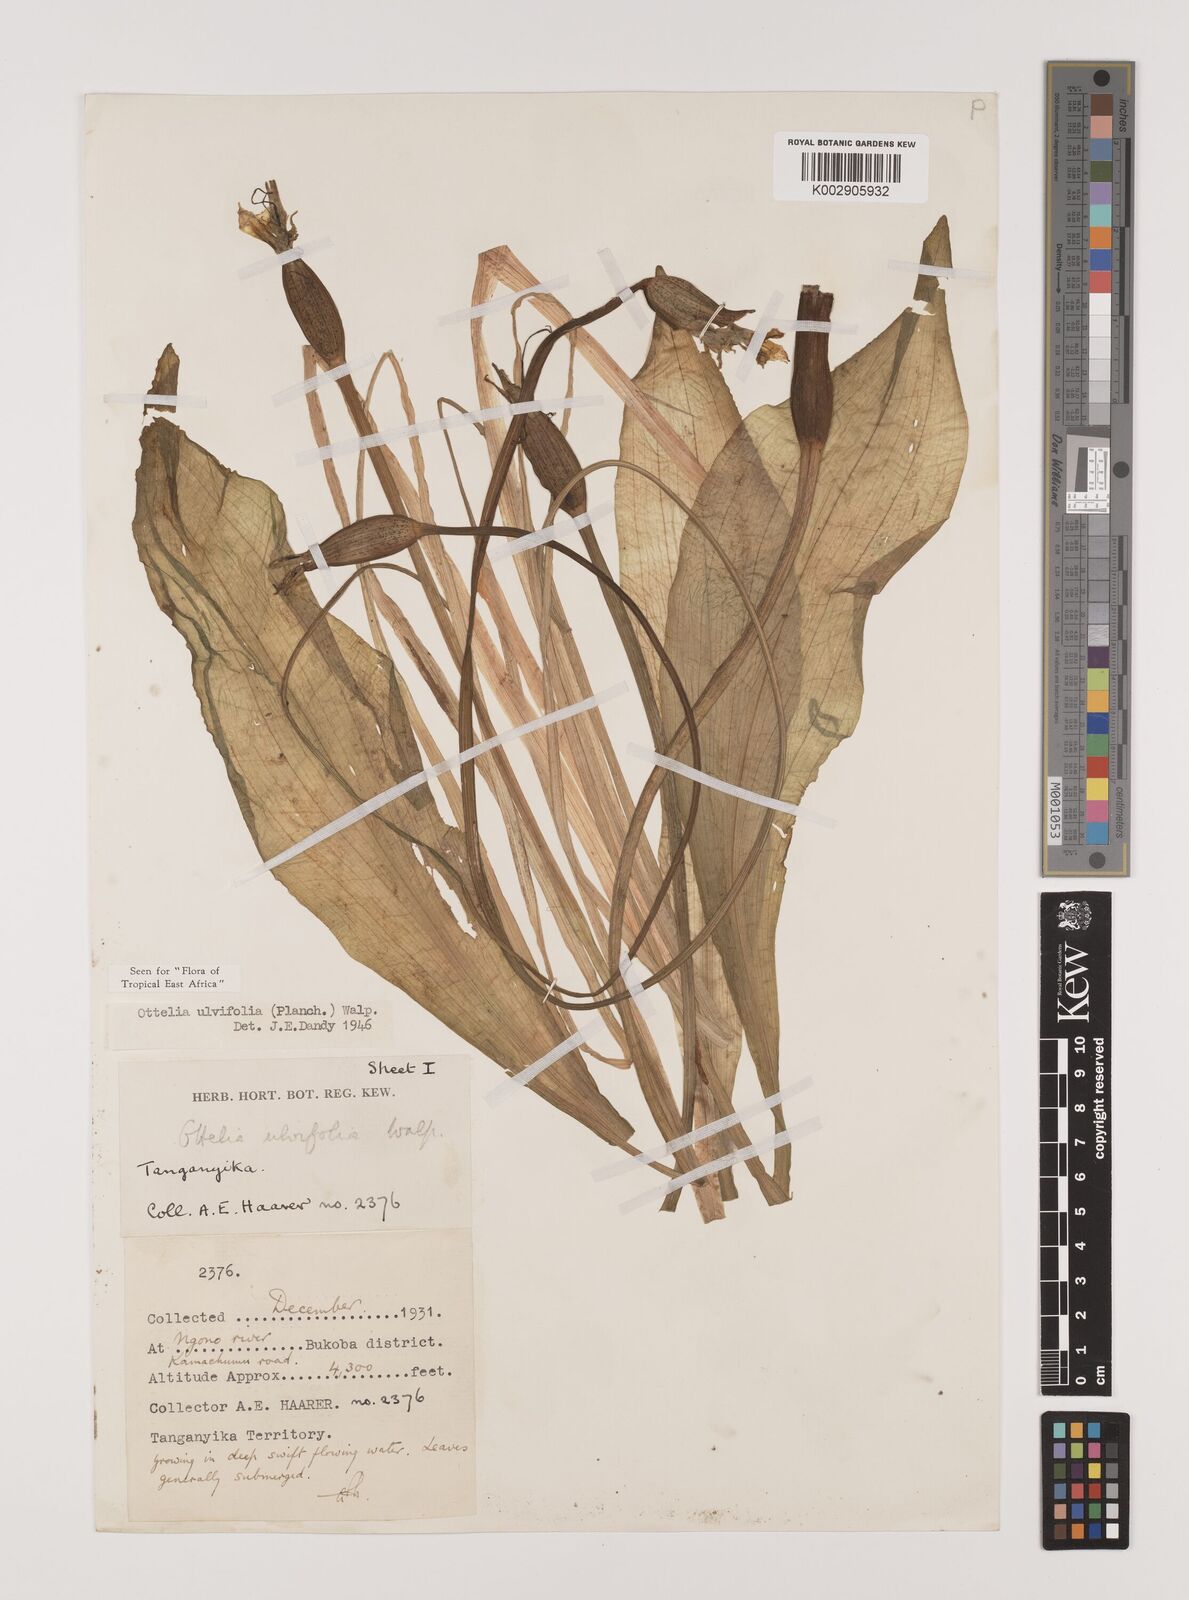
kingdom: Plantae
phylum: Tracheophyta
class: Liliopsida
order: Alismatales
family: Hydrocharitaceae
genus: Ottelia
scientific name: Ottelia ulvifolia
